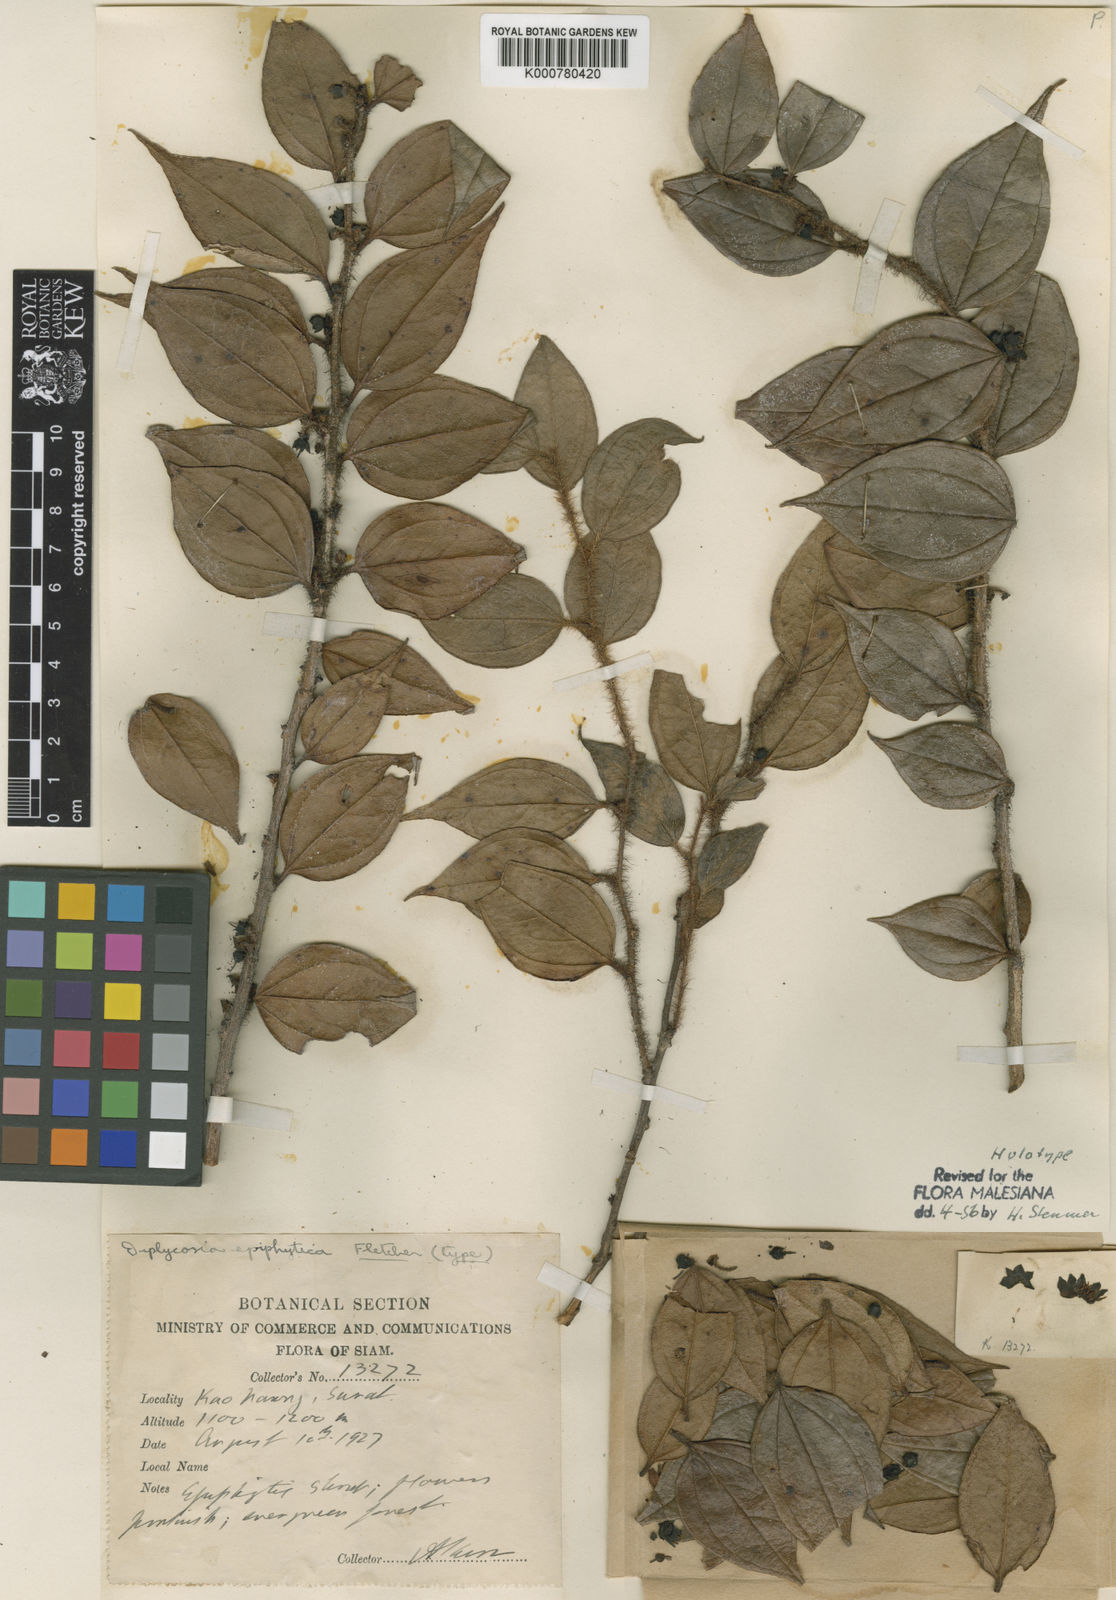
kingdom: Plantae
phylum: Tracheophyta
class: Magnoliopsida
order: Ericales
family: Ericaceae
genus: Gaultheria
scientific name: Gaultheria epiphytica
